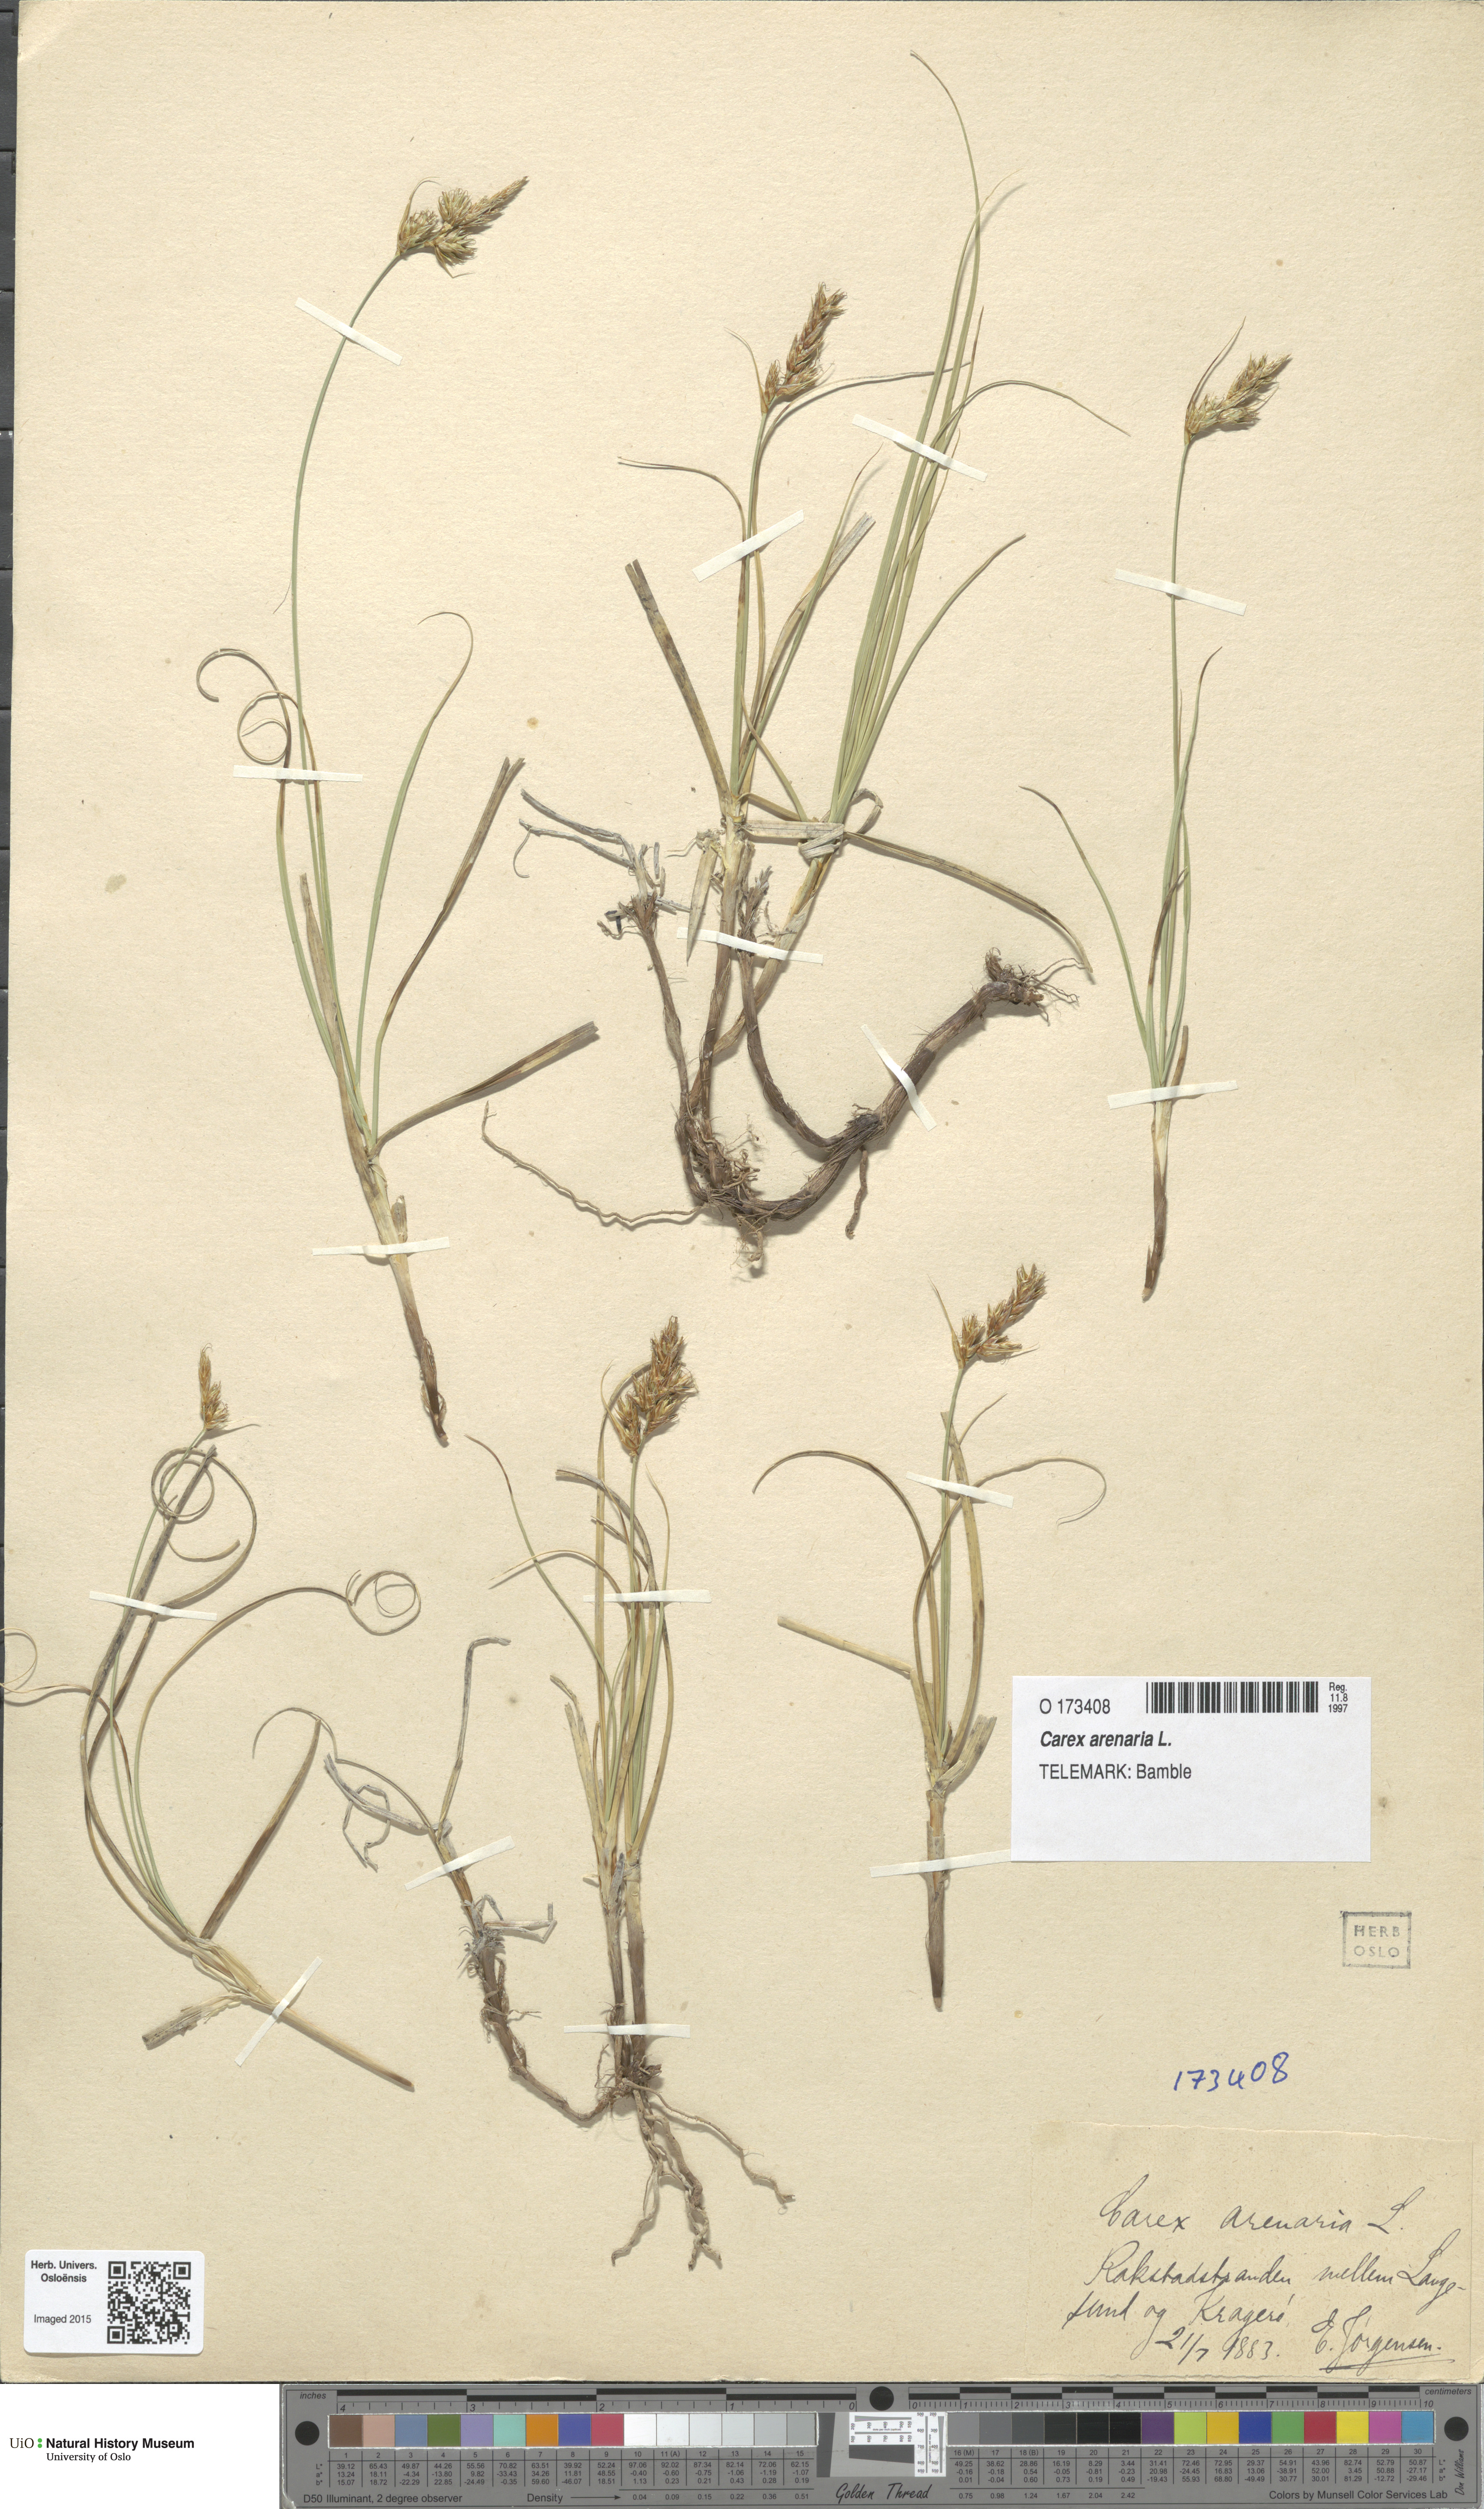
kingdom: Plantae
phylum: Tracheophyta
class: Liliopsida
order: Poales
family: Cyperaceae
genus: Carex
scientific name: Carex arenaria
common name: Sand sedge
